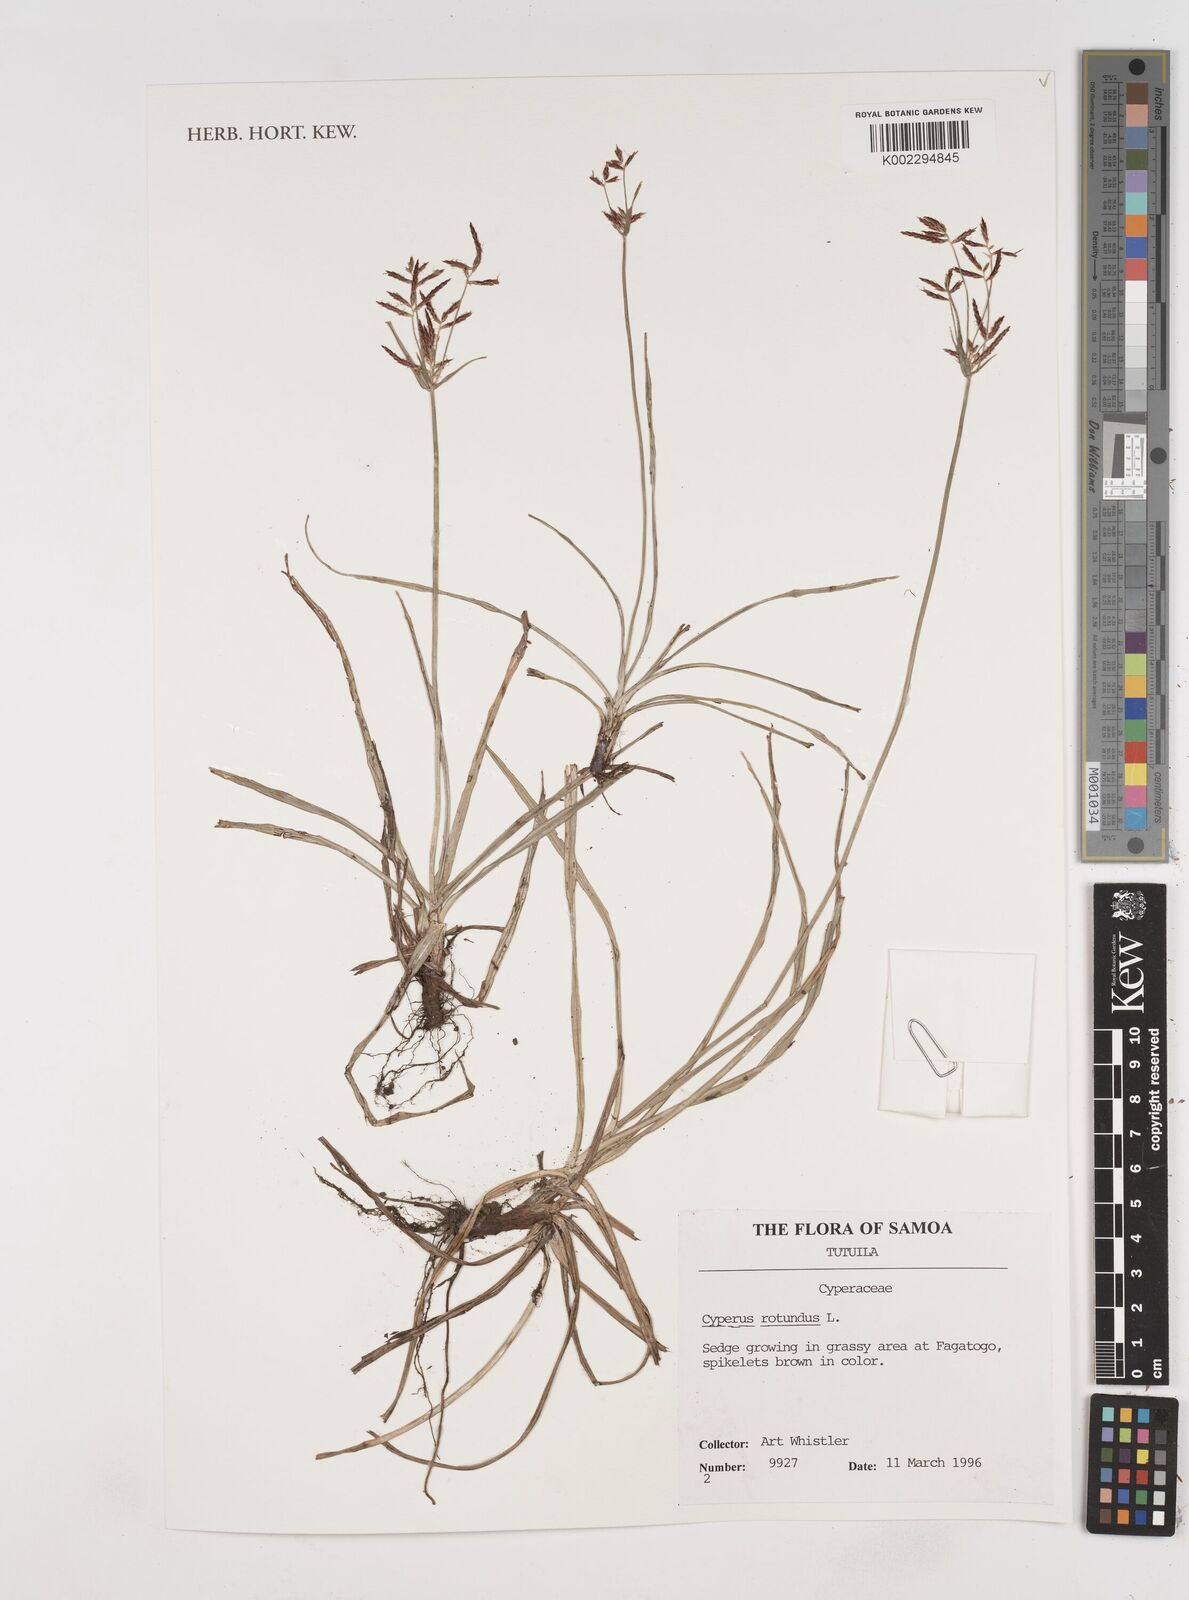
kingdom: Plantae
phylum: Tracheophyta
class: Liliopsida
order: Poales
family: Cyperaceae
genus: Cyperus
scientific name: Cyperus rotundus
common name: Nutgrass
